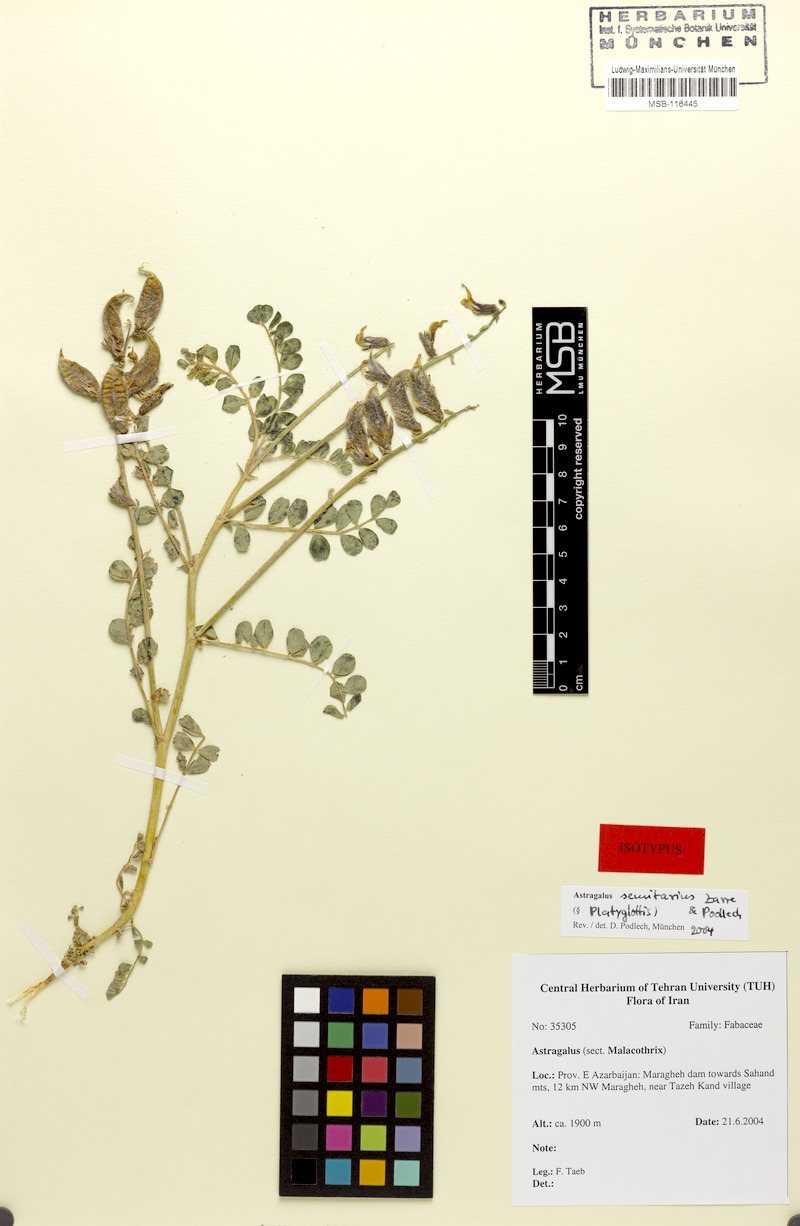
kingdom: Plantae
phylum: Tracheophyta
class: Magnoliopsida
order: Fabales
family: Fabaceae
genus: Astragalus
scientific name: Astragalus senilis
